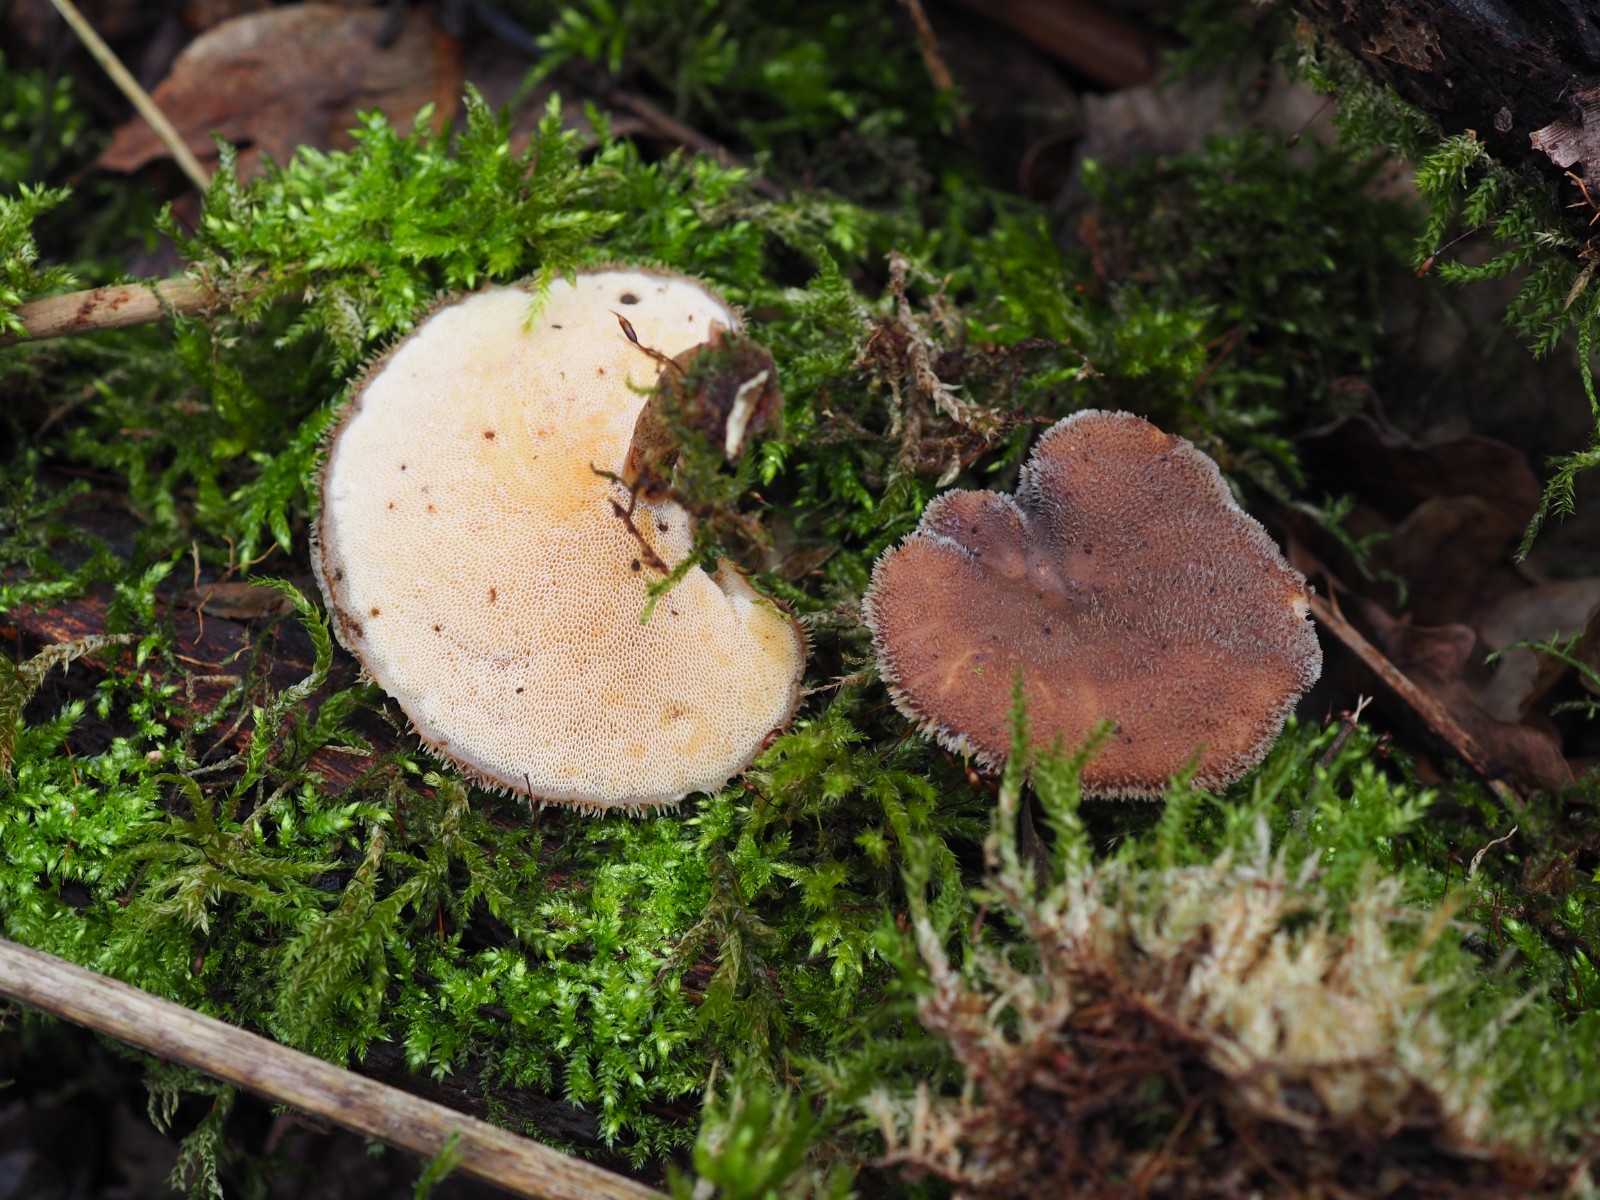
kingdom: Fungi
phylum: Basidiomycota
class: Agaricomycetes
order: Polyporales
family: Polyporaceae
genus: Lentinus
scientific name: Lentinus brumalis
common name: vinter-stilkporesvamp
